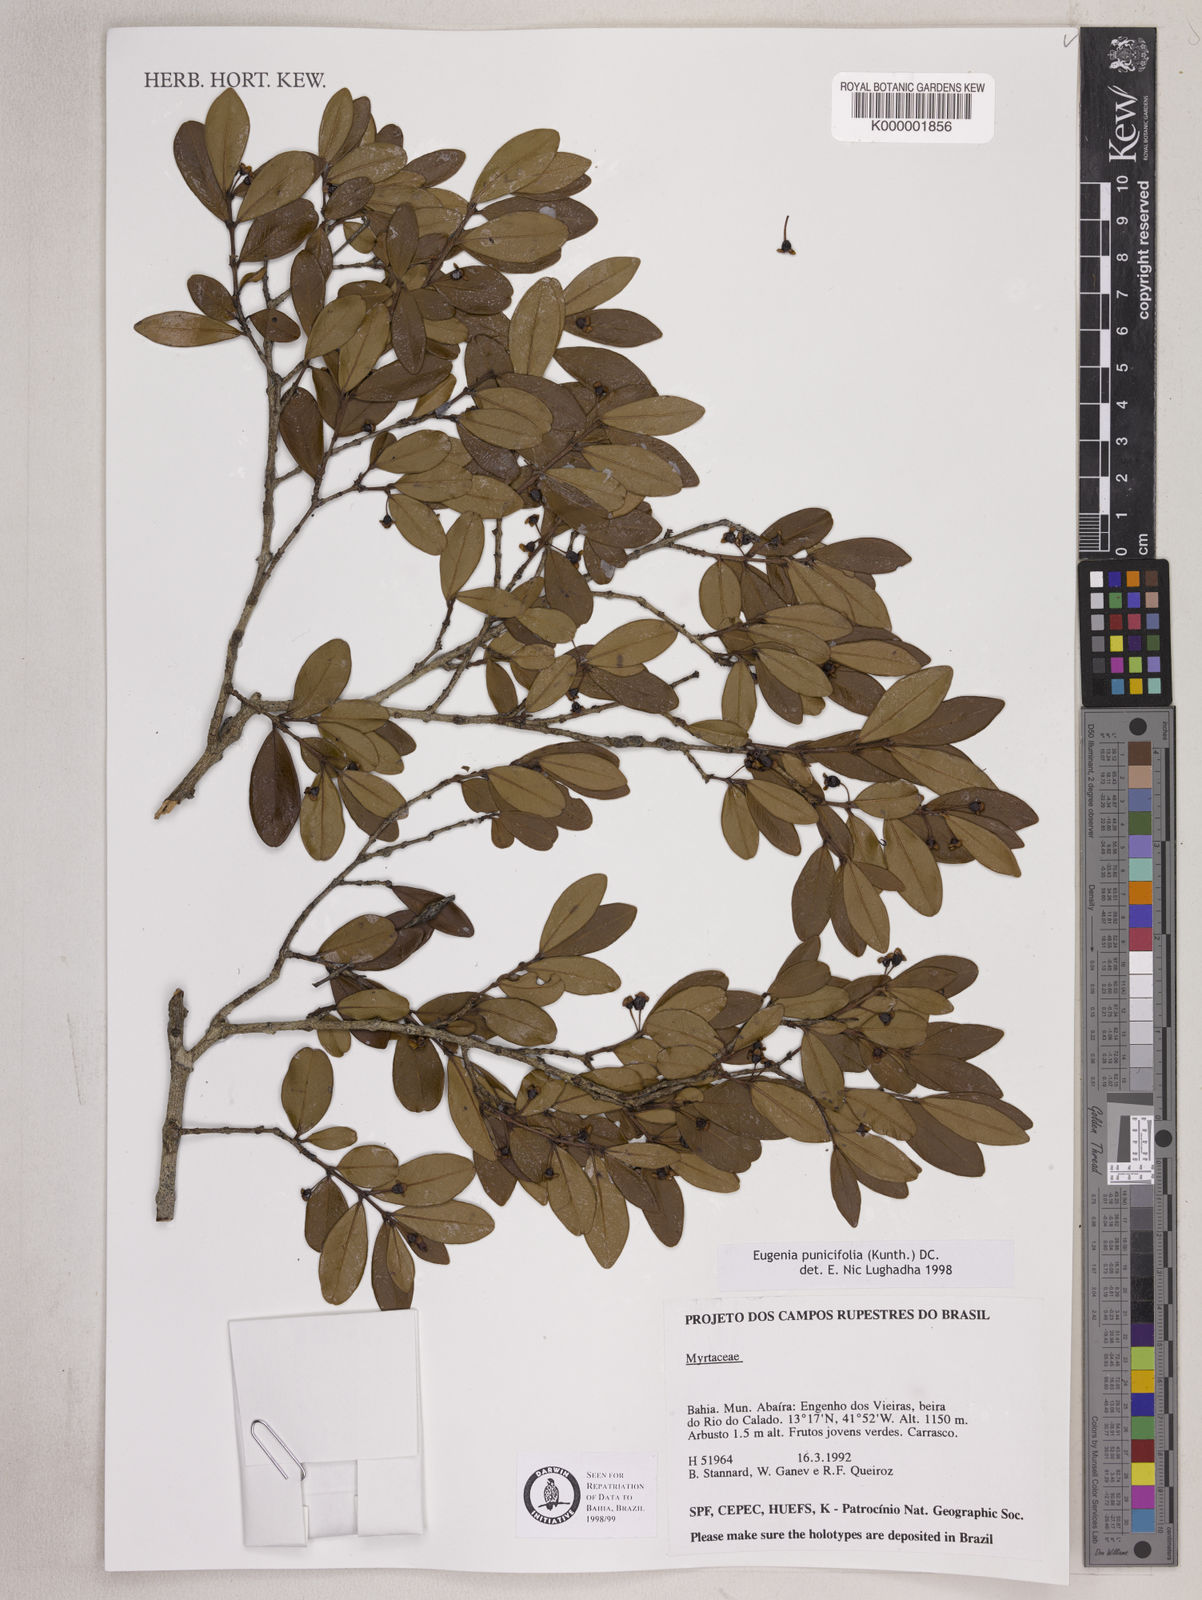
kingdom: Plantae
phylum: Tracheophyta
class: Magnoliopsida
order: Myrtales
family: Myrtaceae
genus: Eugenia
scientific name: Eugenia punicifolia
